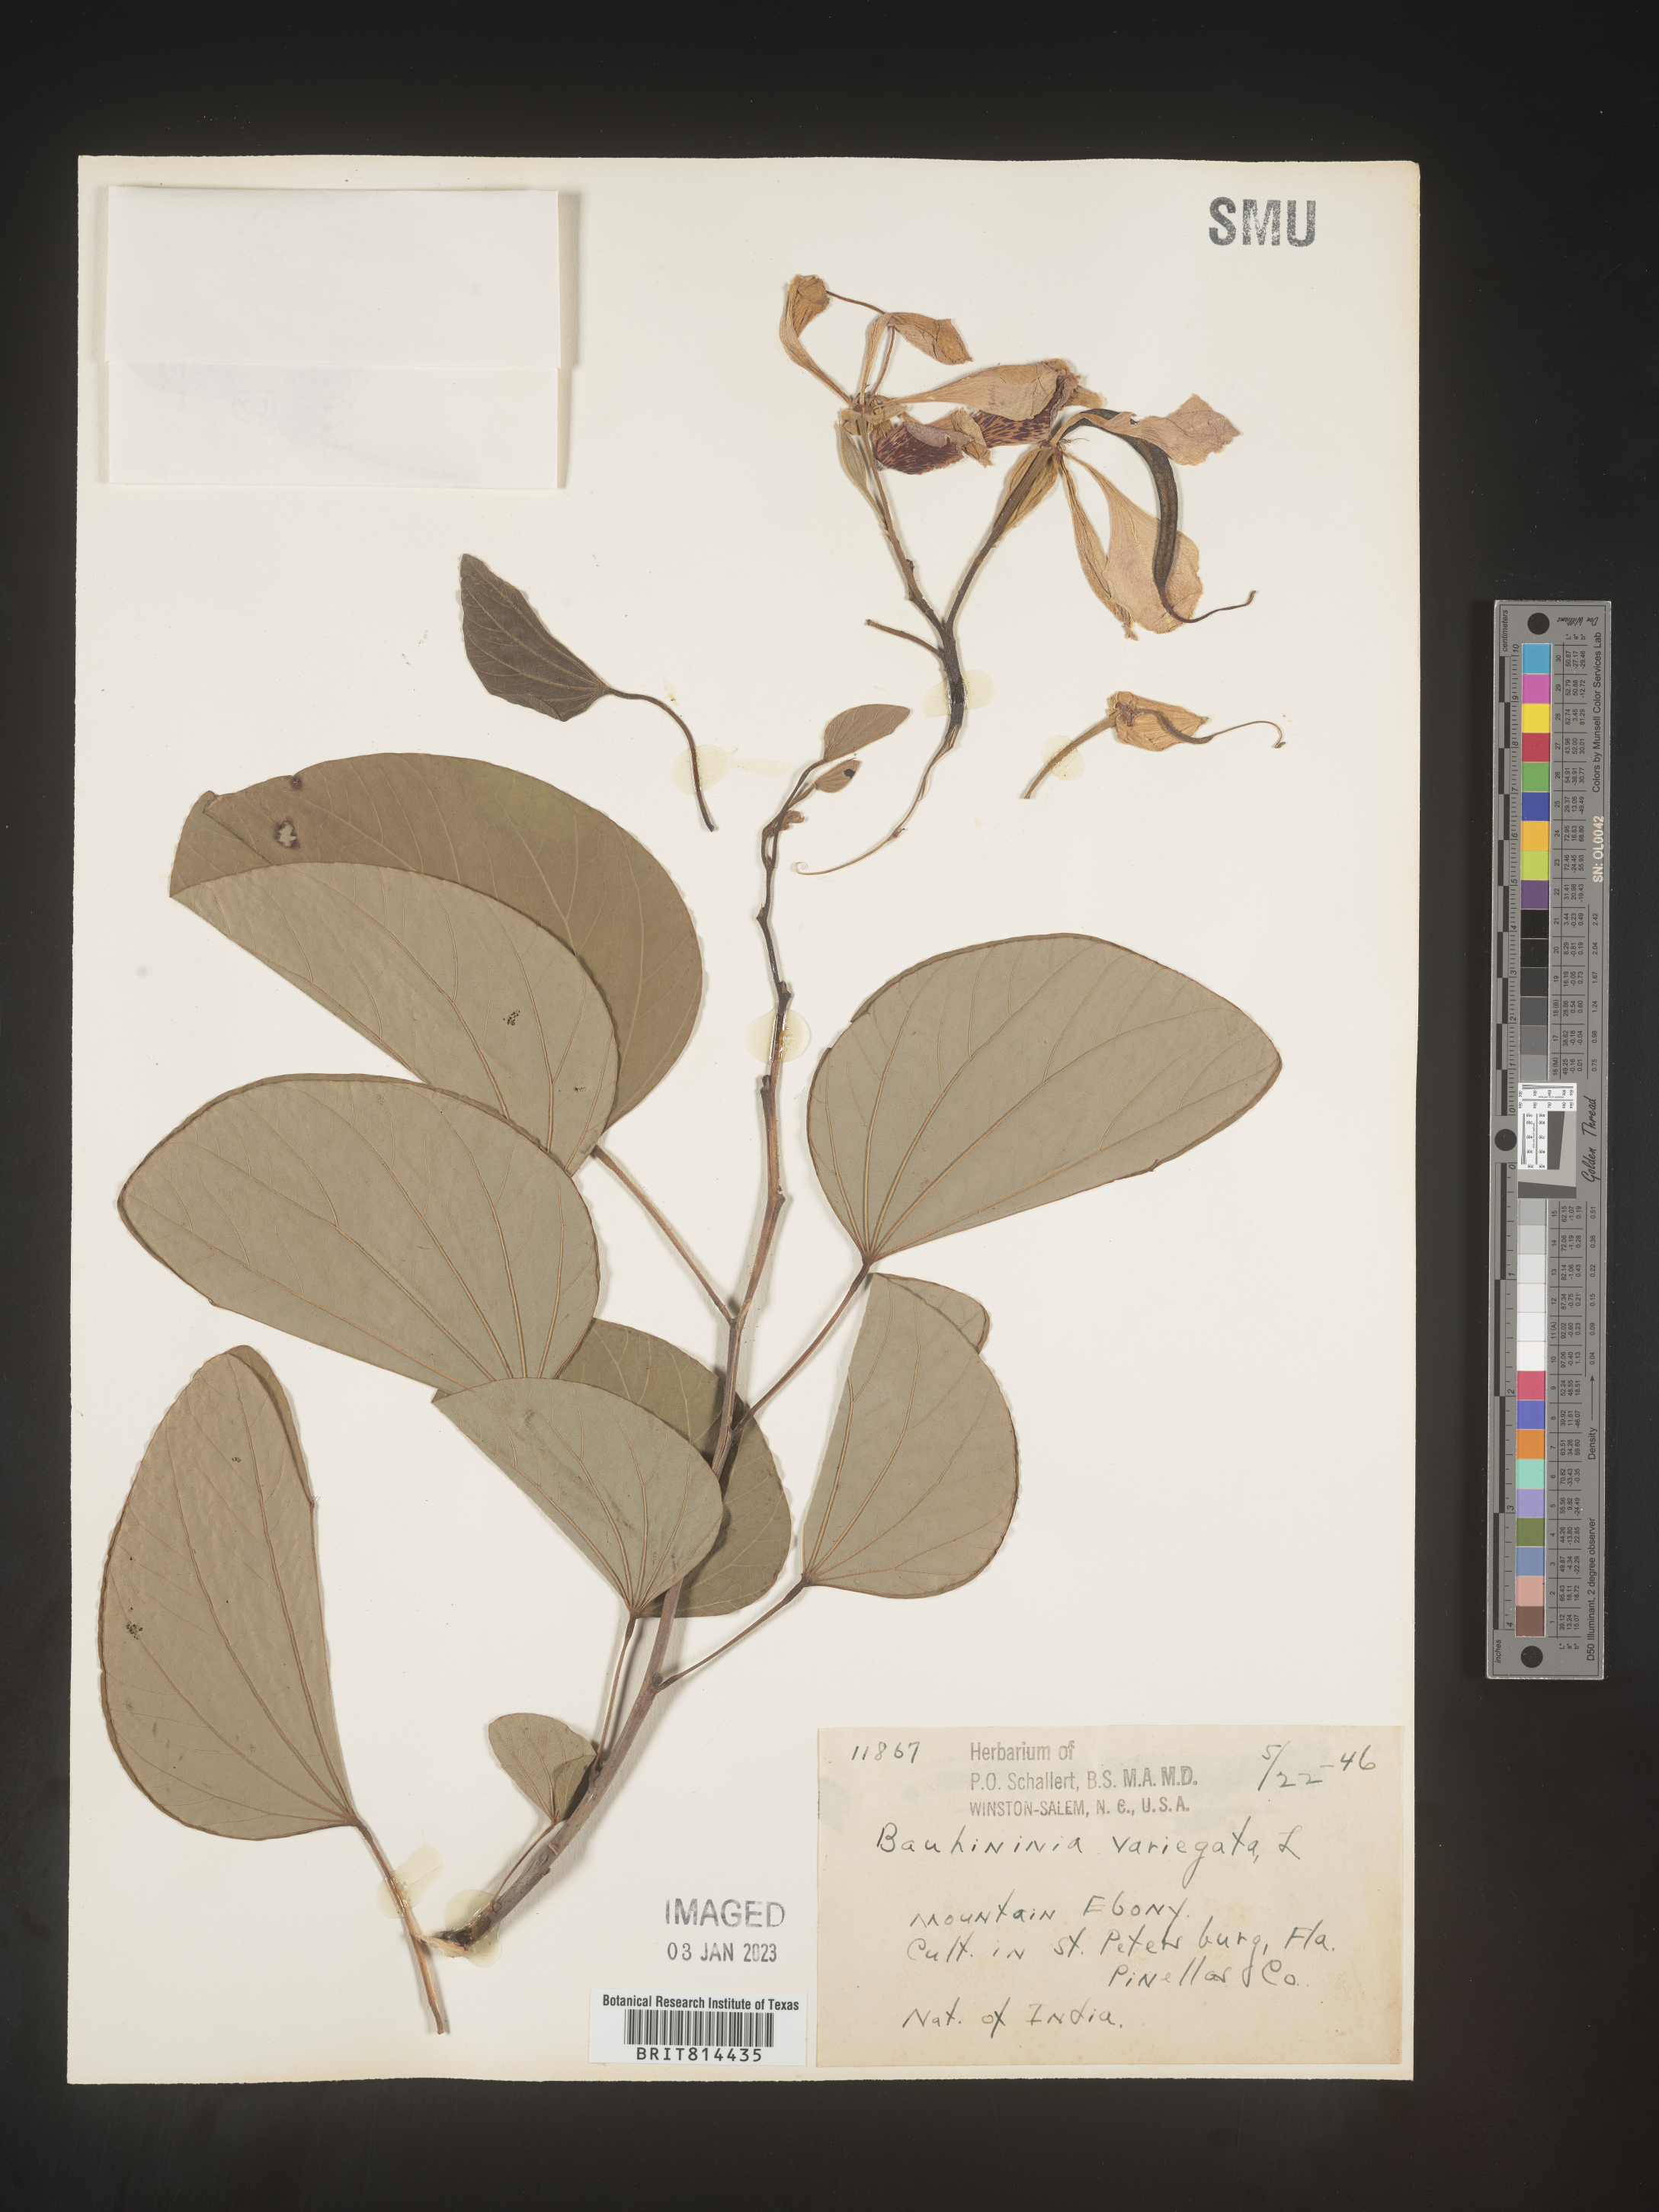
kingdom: Plantae
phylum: Tracheophyta
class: Magnoliopsida
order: Fabales
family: Fabaceae
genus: Bauhinia
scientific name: Bauhinia
